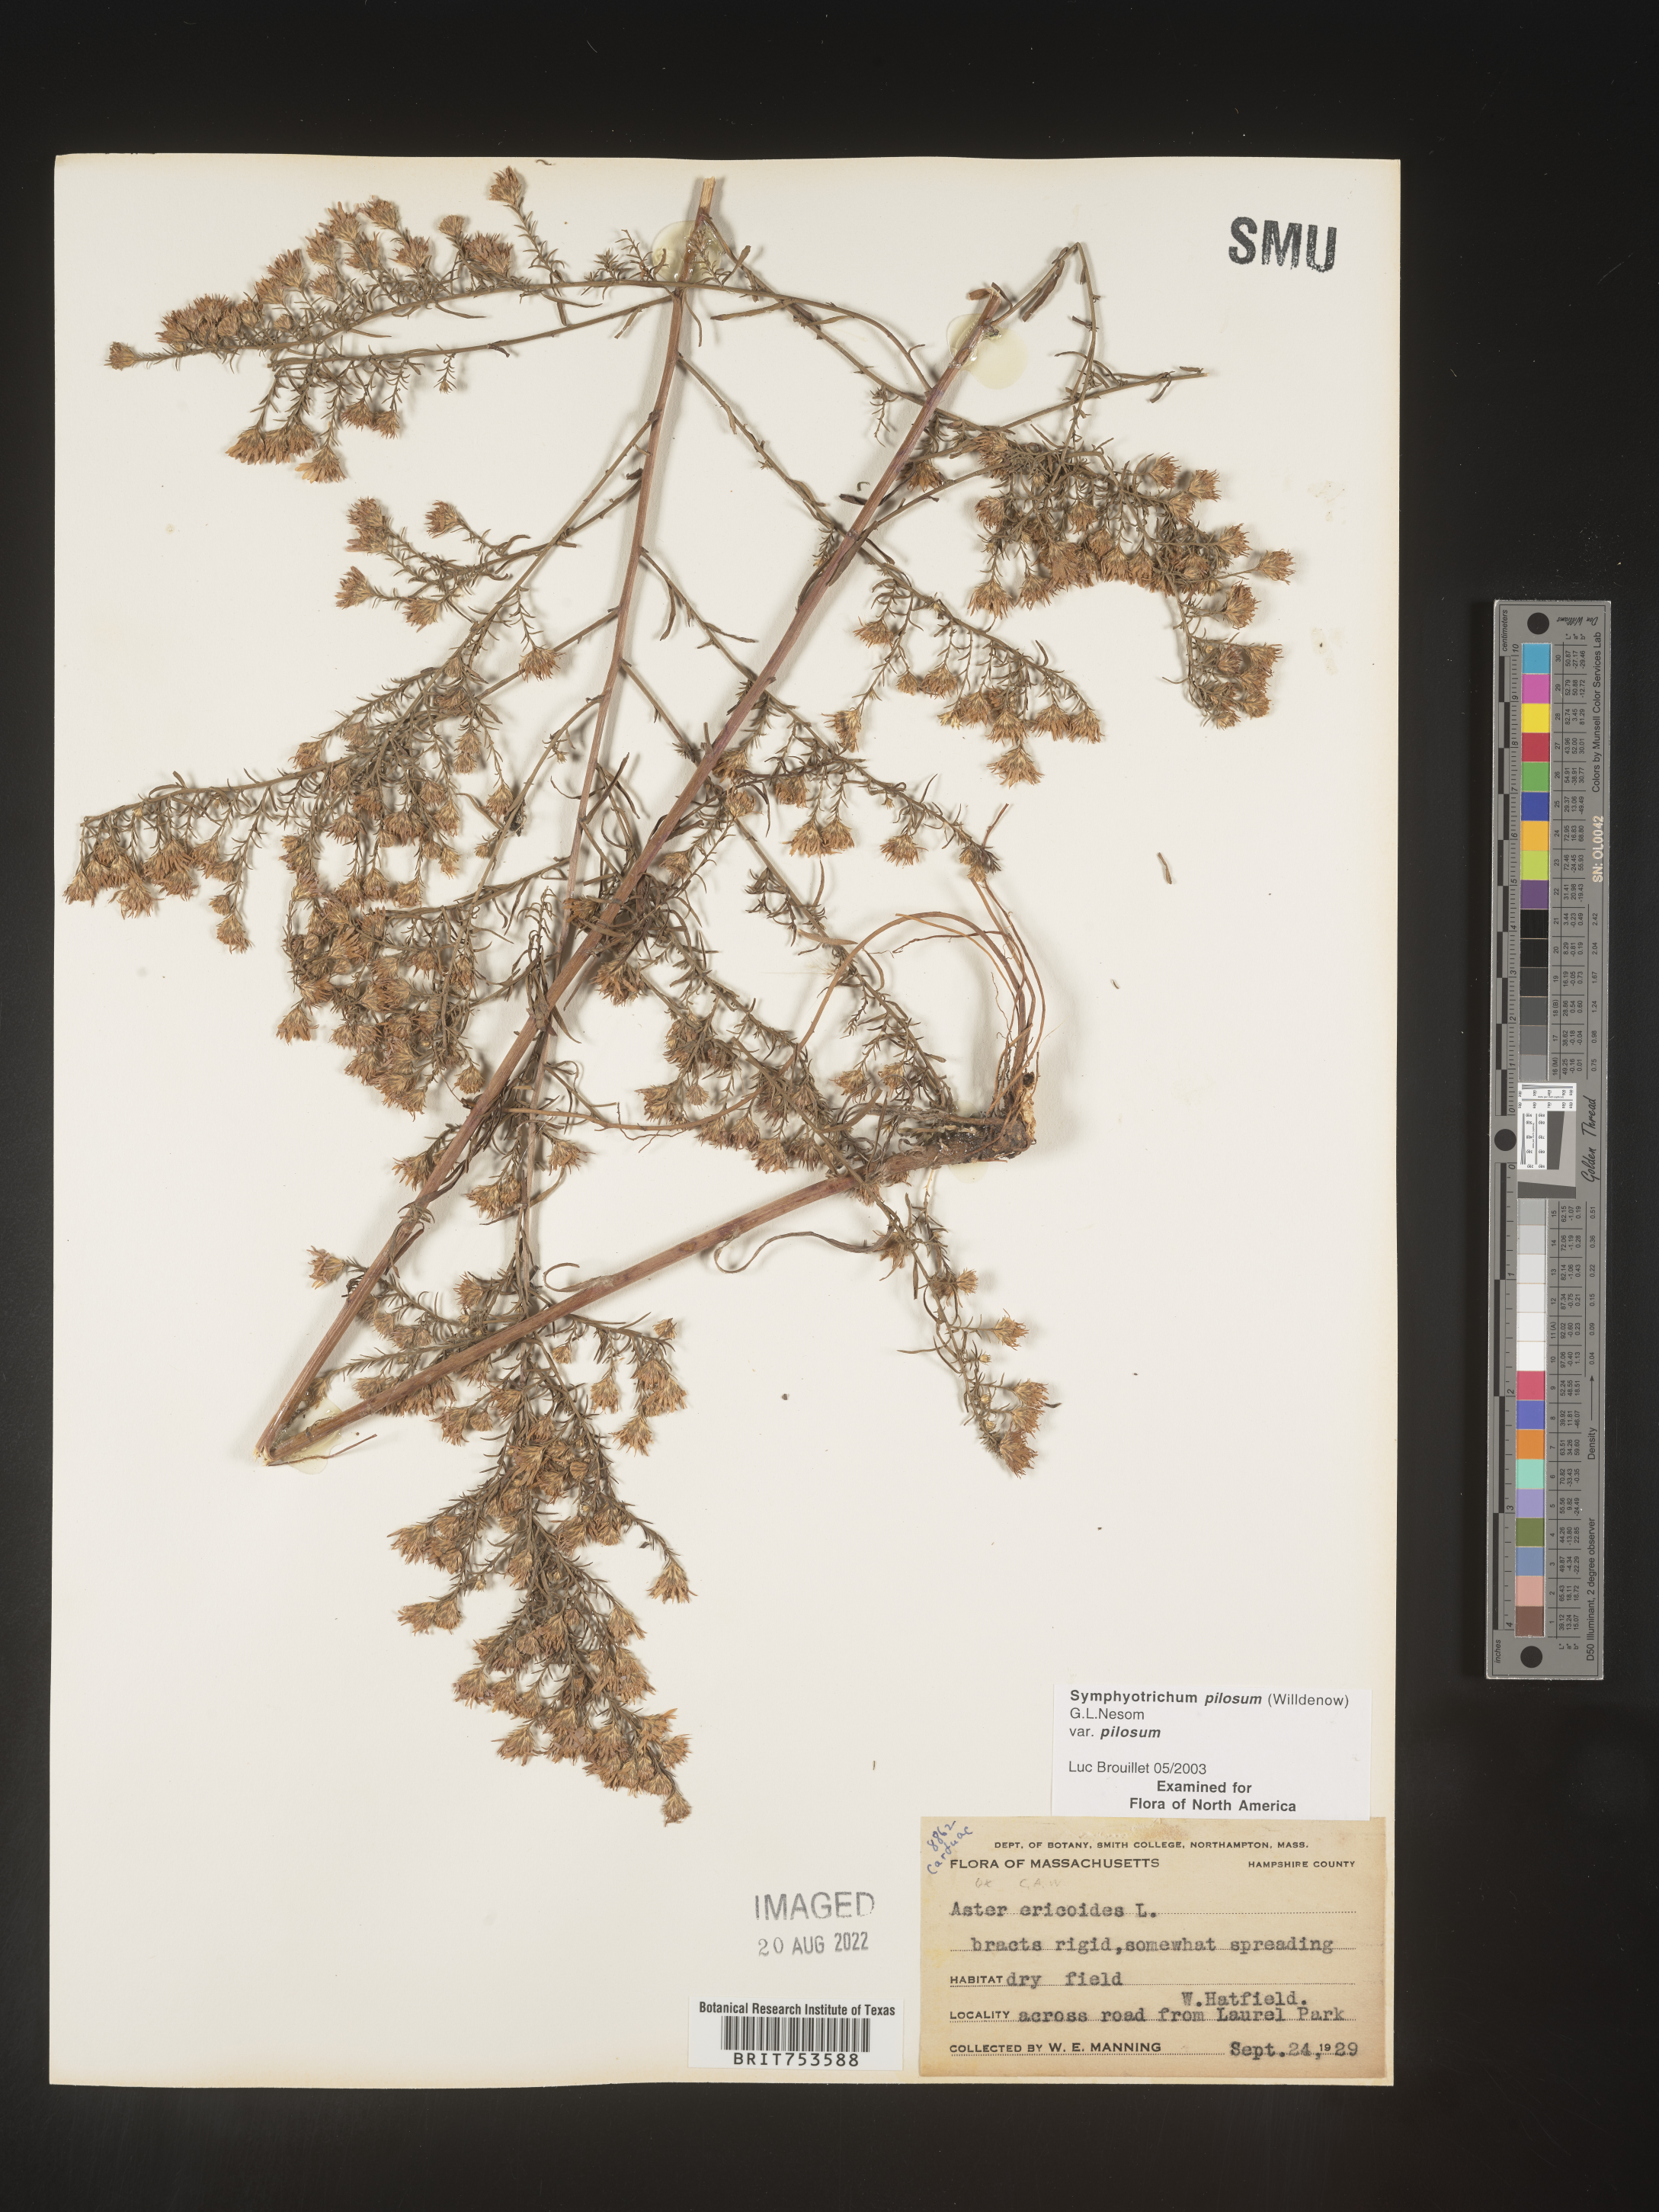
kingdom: Plantae
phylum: Tracheophyta
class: Magnoliopsida
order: Asterales
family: Asteraceae
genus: Symphyotrichum
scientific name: Symphyotrichum pilosum
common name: Awl aster
